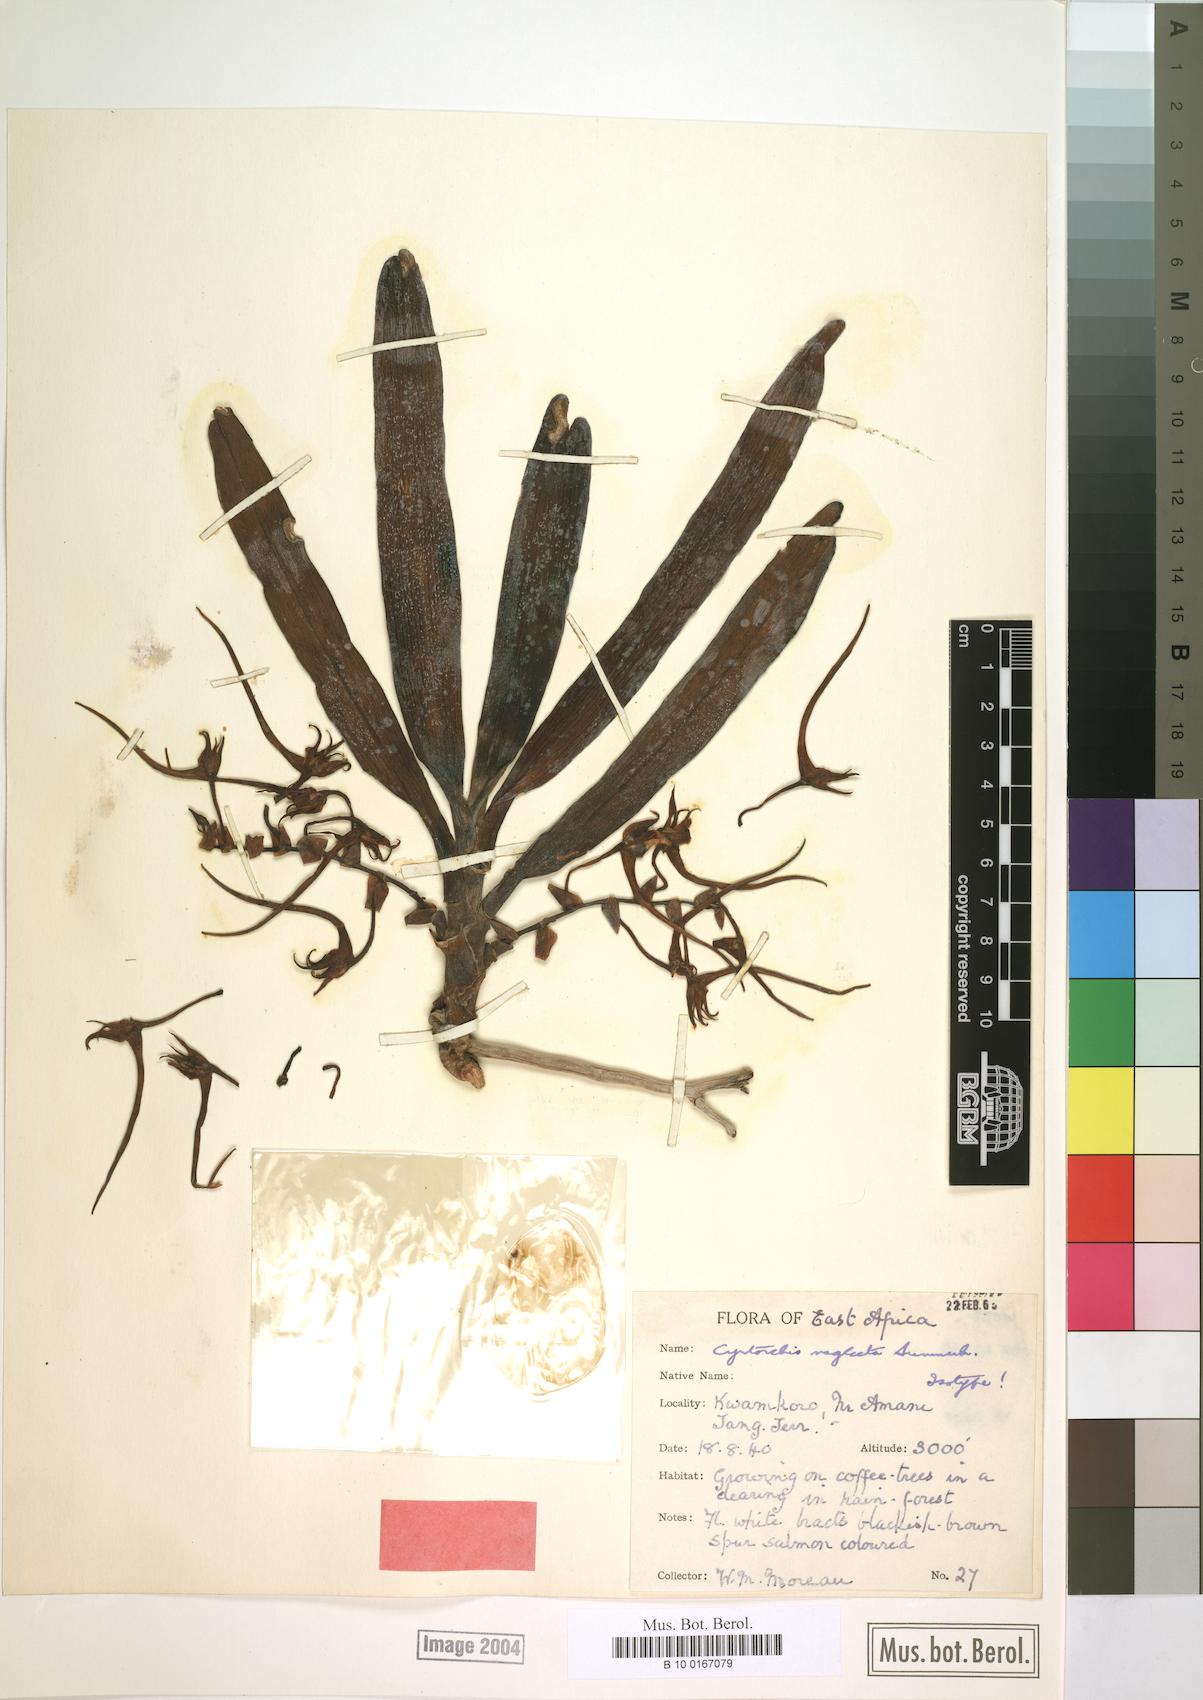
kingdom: Plantae
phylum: Tracheophyta
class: Liliopsida
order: Asparagales
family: Orchidaceae
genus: Cyrtorchis
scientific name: Cyrtorchis neglecta
